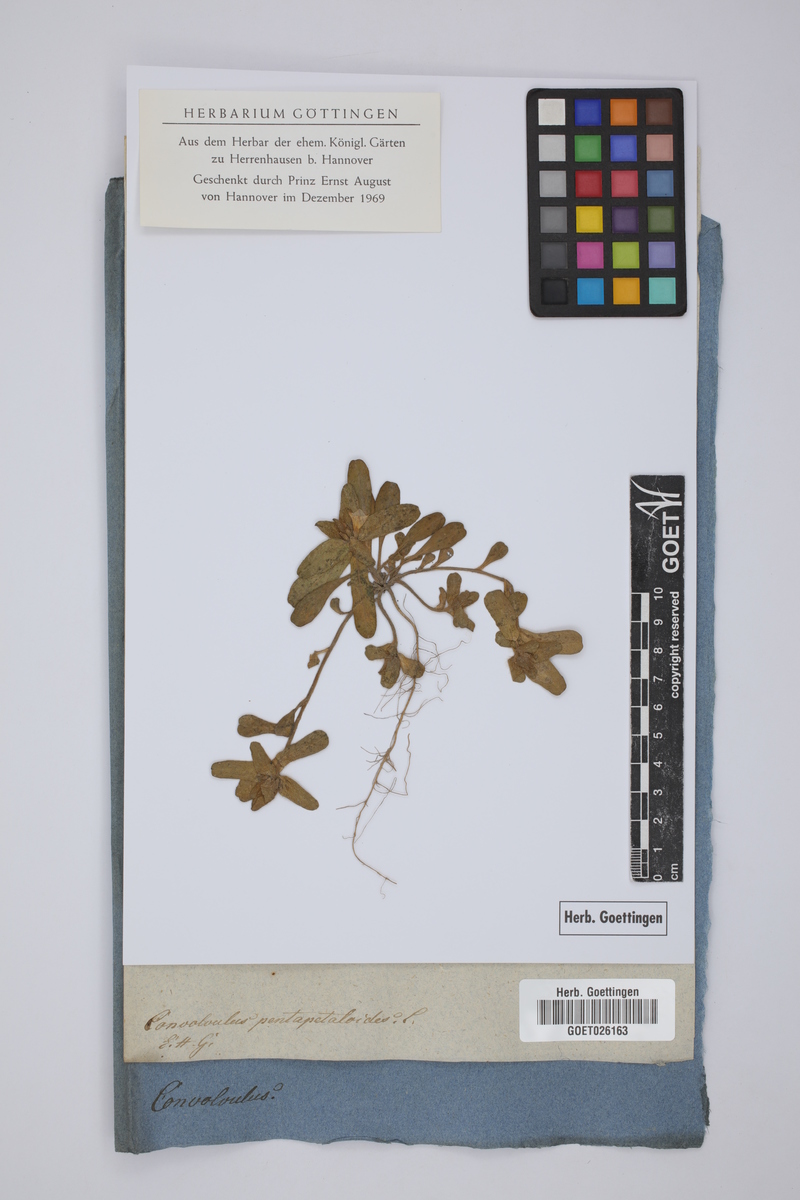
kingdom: Plantae
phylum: Tracheophyta
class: Magnoliopsida
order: Solanales
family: Convolvulaceae
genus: Convolvulus
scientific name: Convolvulus pentapetaloides
